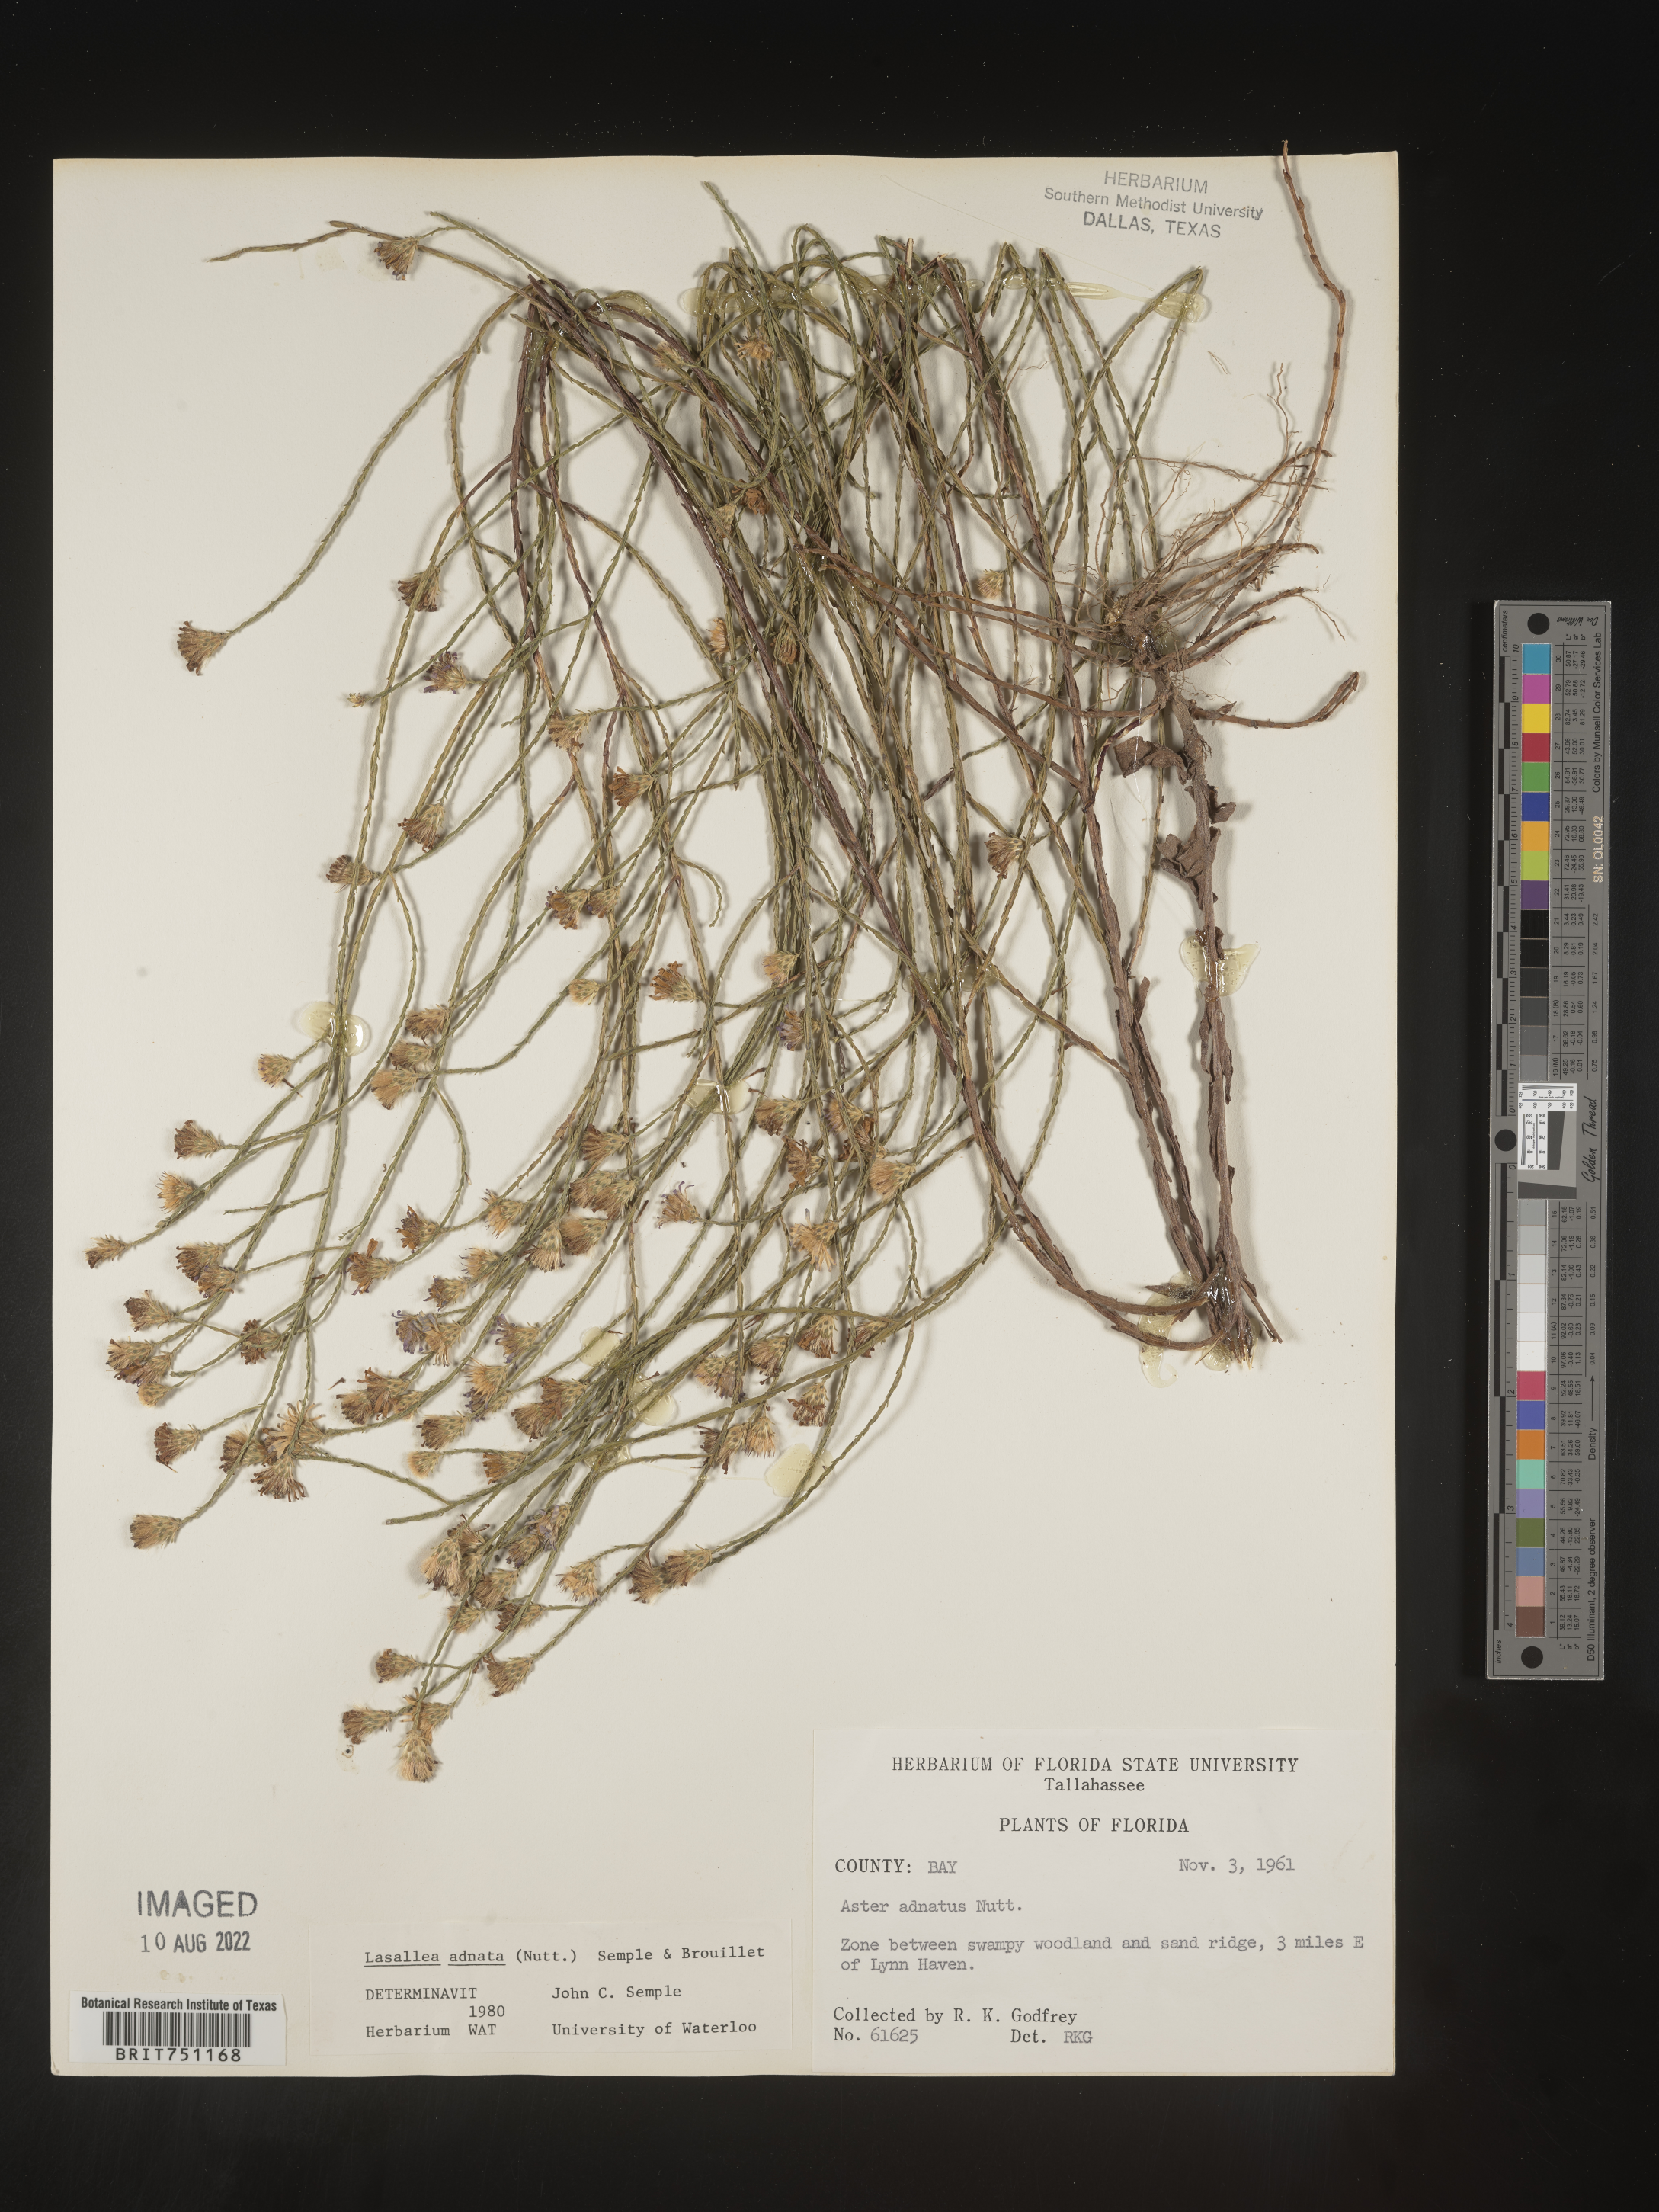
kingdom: Plantae
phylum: Tracheophyta
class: Magnoliopsida
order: Asterales
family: Asteraceae
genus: Symphyotrichum
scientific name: Symphyotrichum adnatum
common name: Scale-leaf aster
